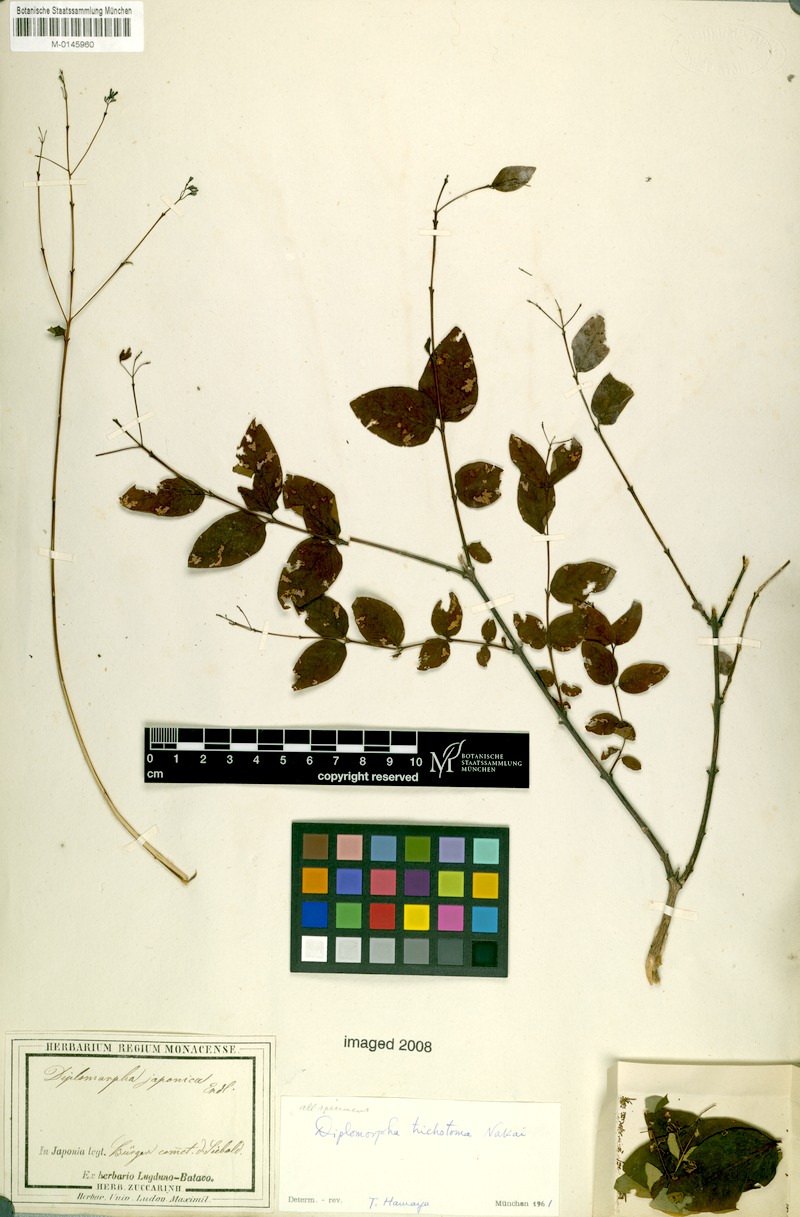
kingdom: Plantae
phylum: Tracheophyta
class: Magnoliopsida
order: Malvales
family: Thymelaeaceae
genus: Wikstroemia
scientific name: Wikstroemia trichotoma
